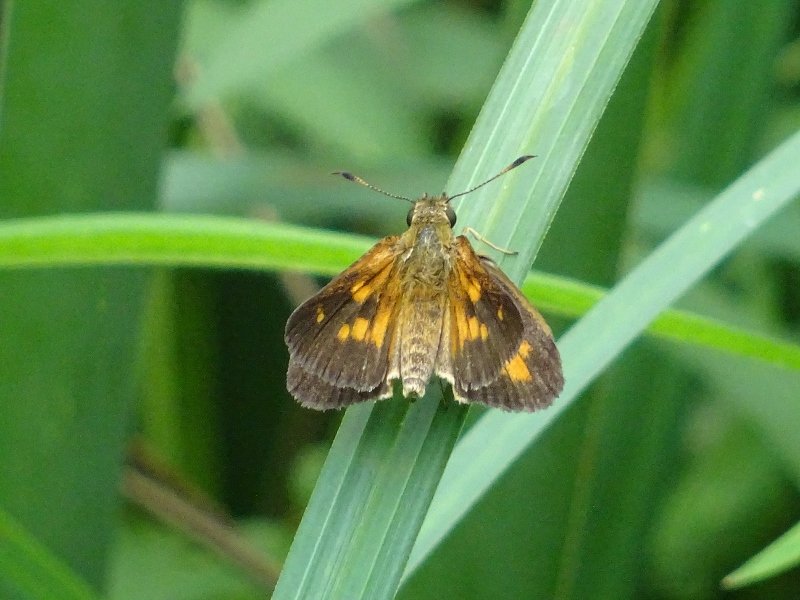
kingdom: Animalia
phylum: Arthropoda
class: Insecta
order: Lepidoptera
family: Hesperiidae
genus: Poanes
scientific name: Poanes viator
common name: Broad-winged Skipper
